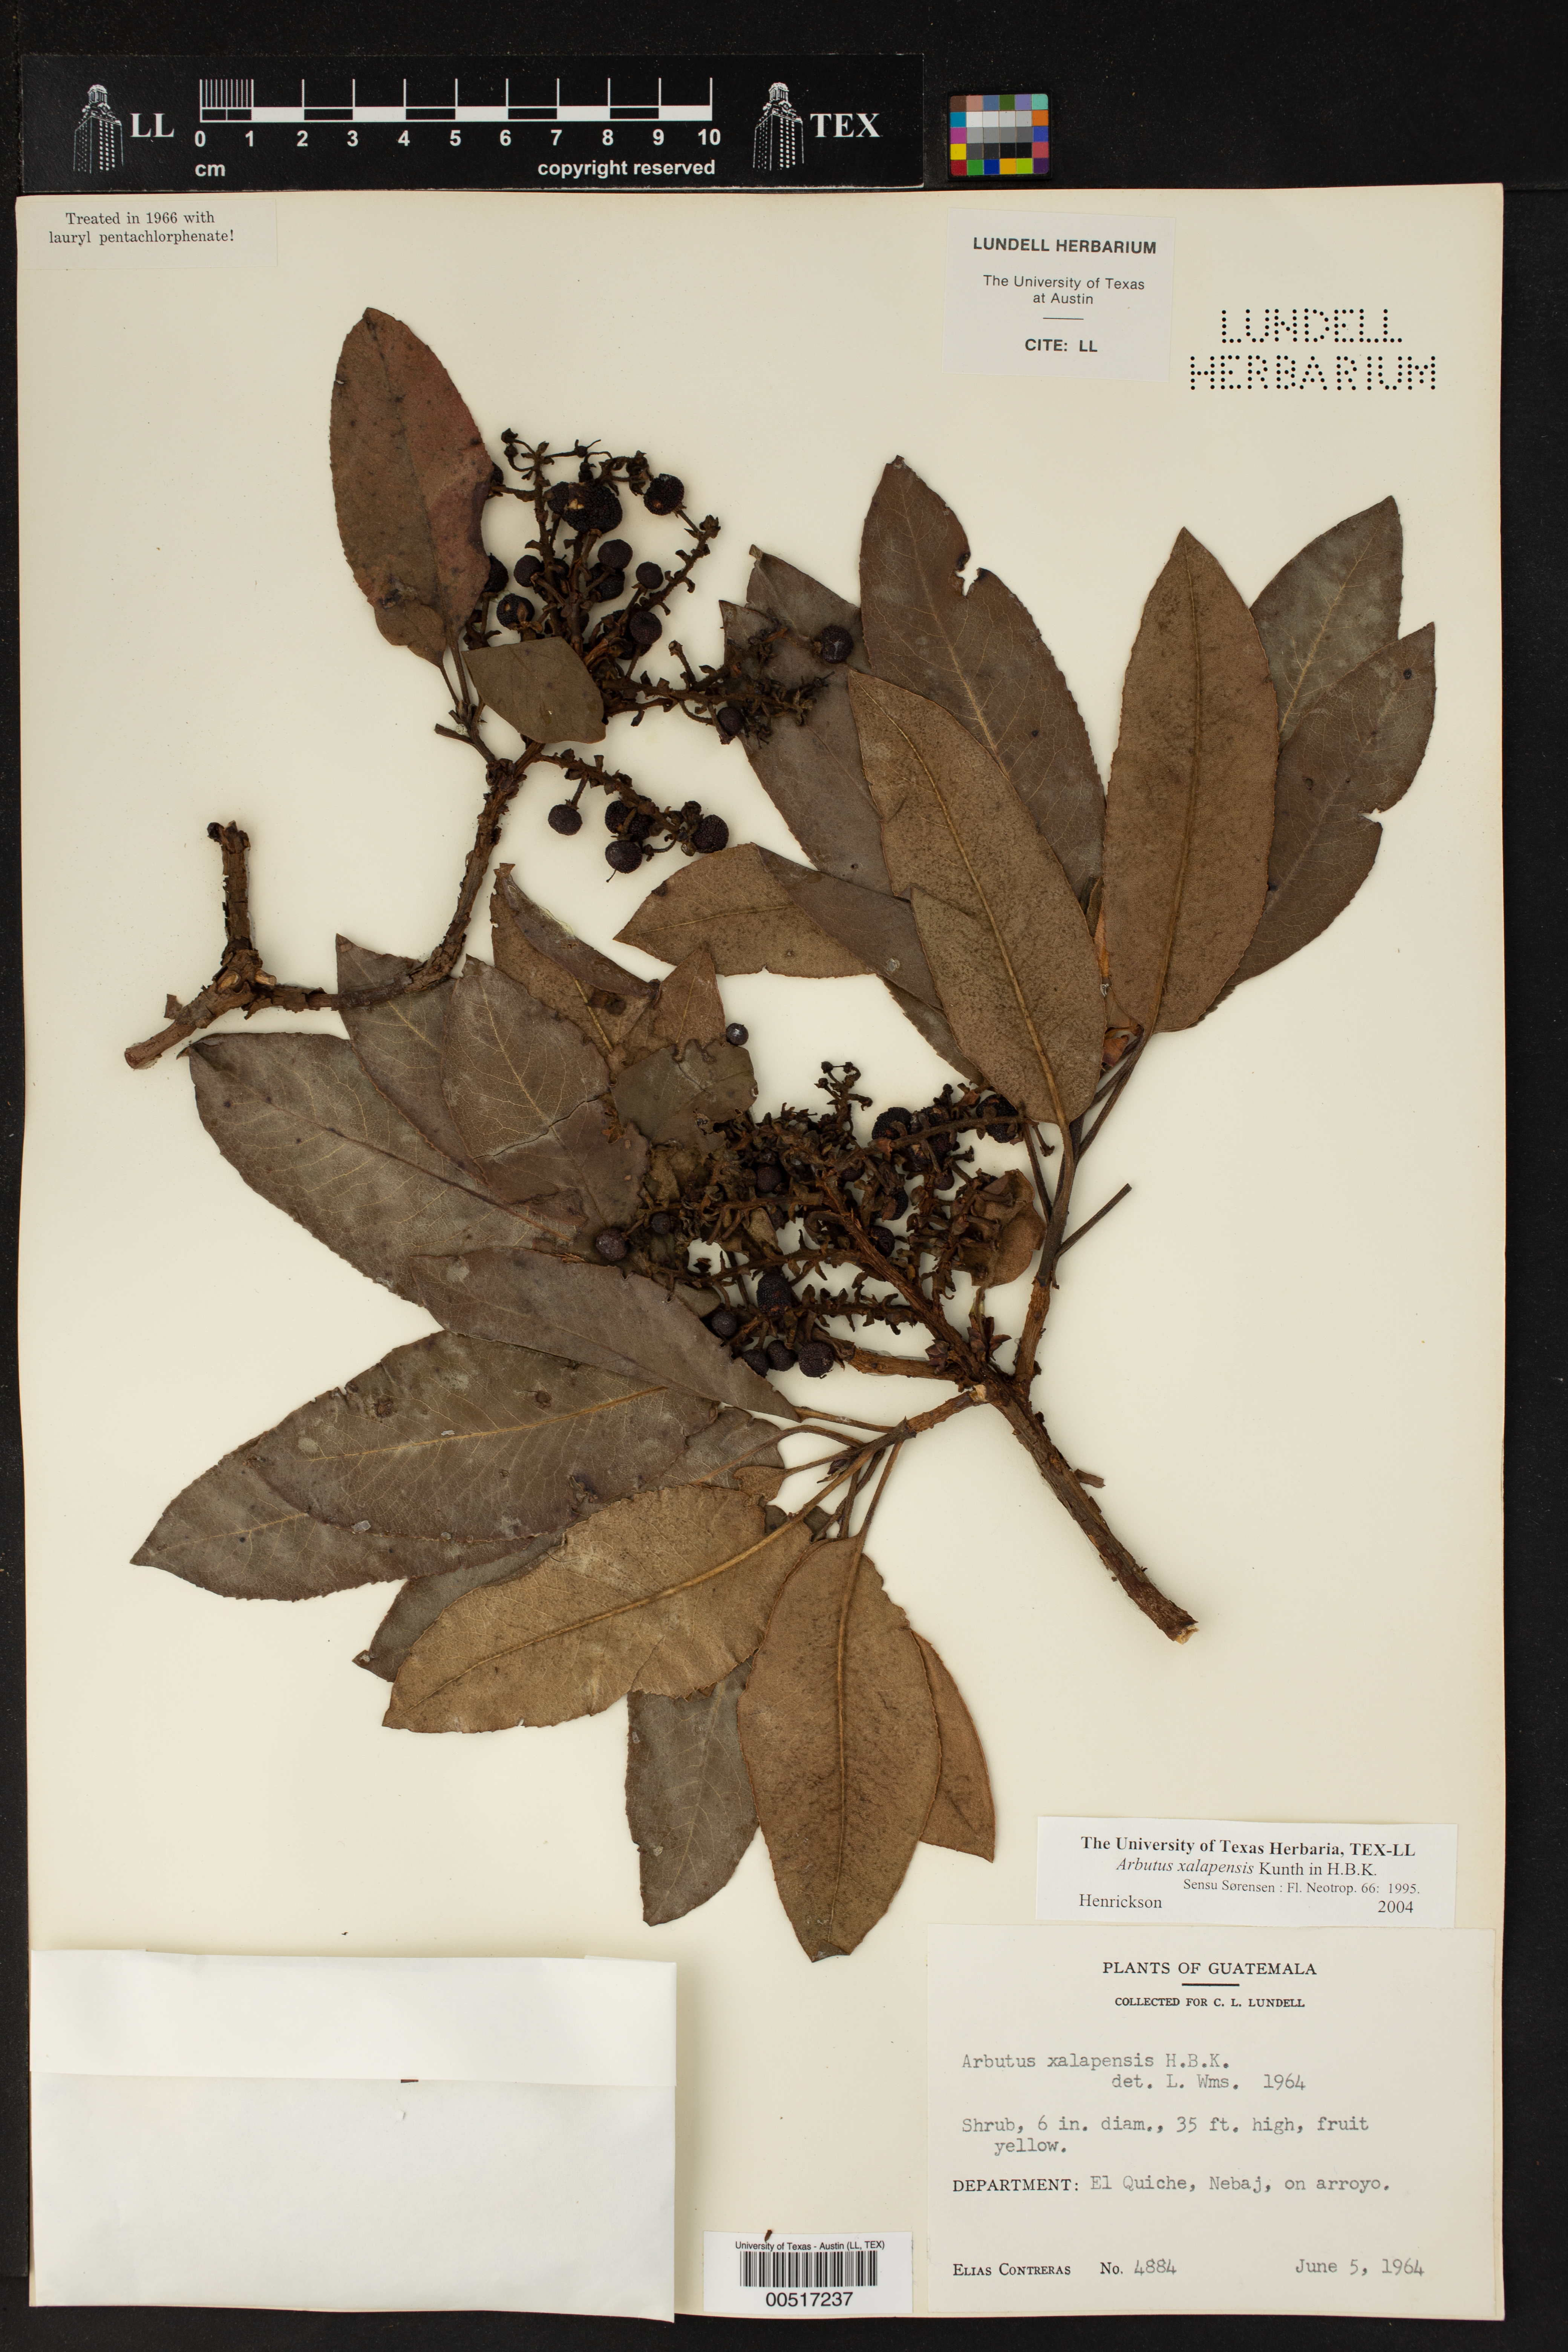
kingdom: Plantae
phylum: Tracheophyta
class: Magnoliopsida
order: Ericales
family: Ericaceae
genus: Arbutus
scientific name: Arbutus xalapensis
